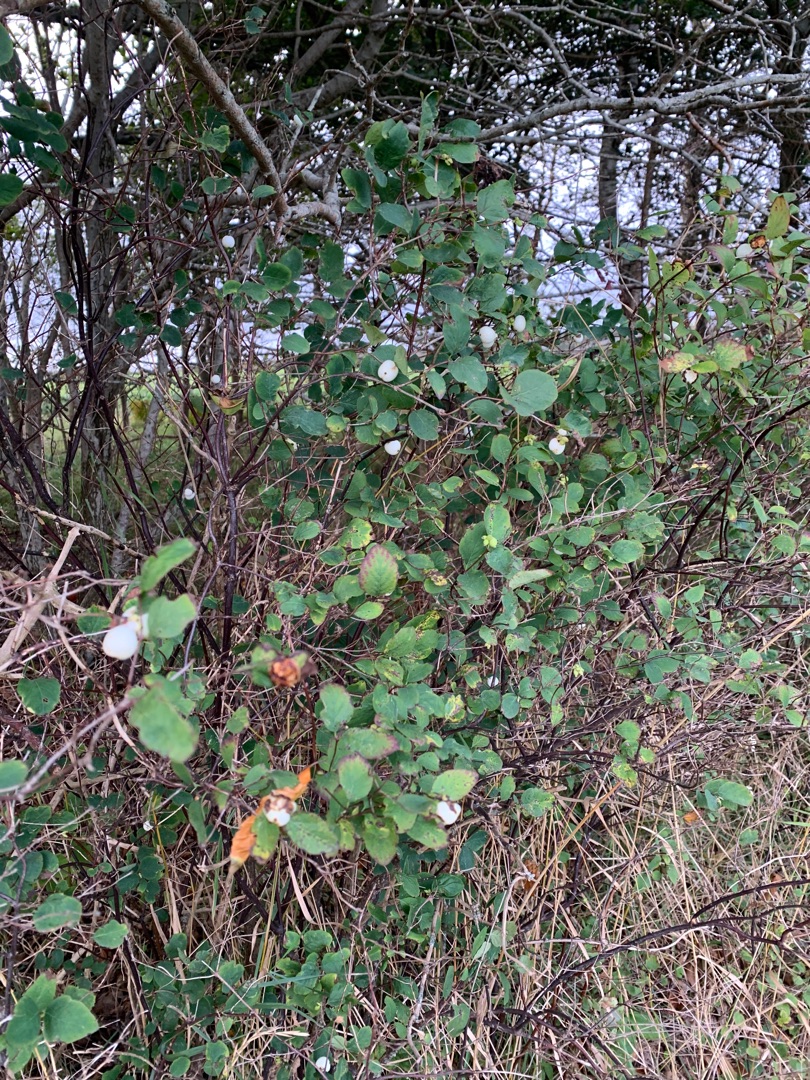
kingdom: Plantae
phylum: Tracheophyta
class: Magnoliopsida
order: Dipsacales
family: Caprifoliaceae
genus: Symphoricarpos
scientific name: Symphoricarpos albus
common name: Almindelig snebær
